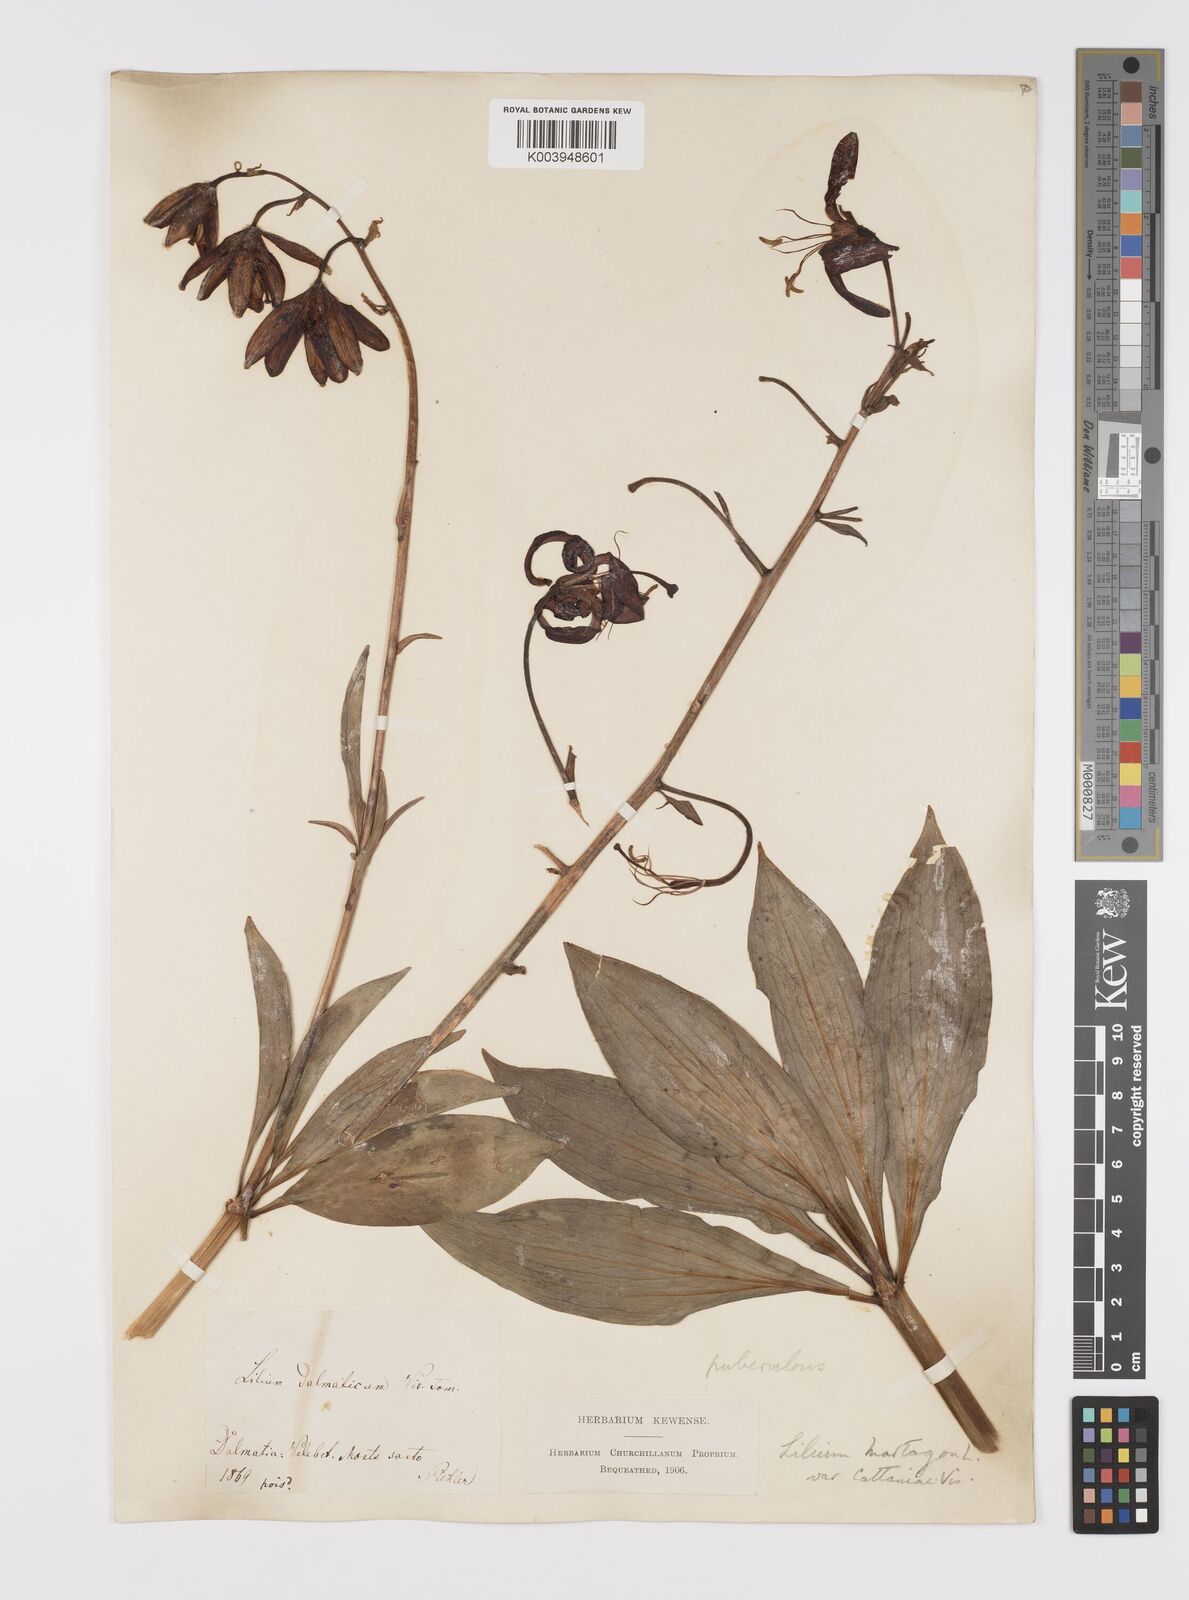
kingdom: Plantae
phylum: Tracheophyta
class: Liliopsida
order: Liliales
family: Liliaceae
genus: Lilium
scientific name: Lilium martagon
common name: Martagon lily
